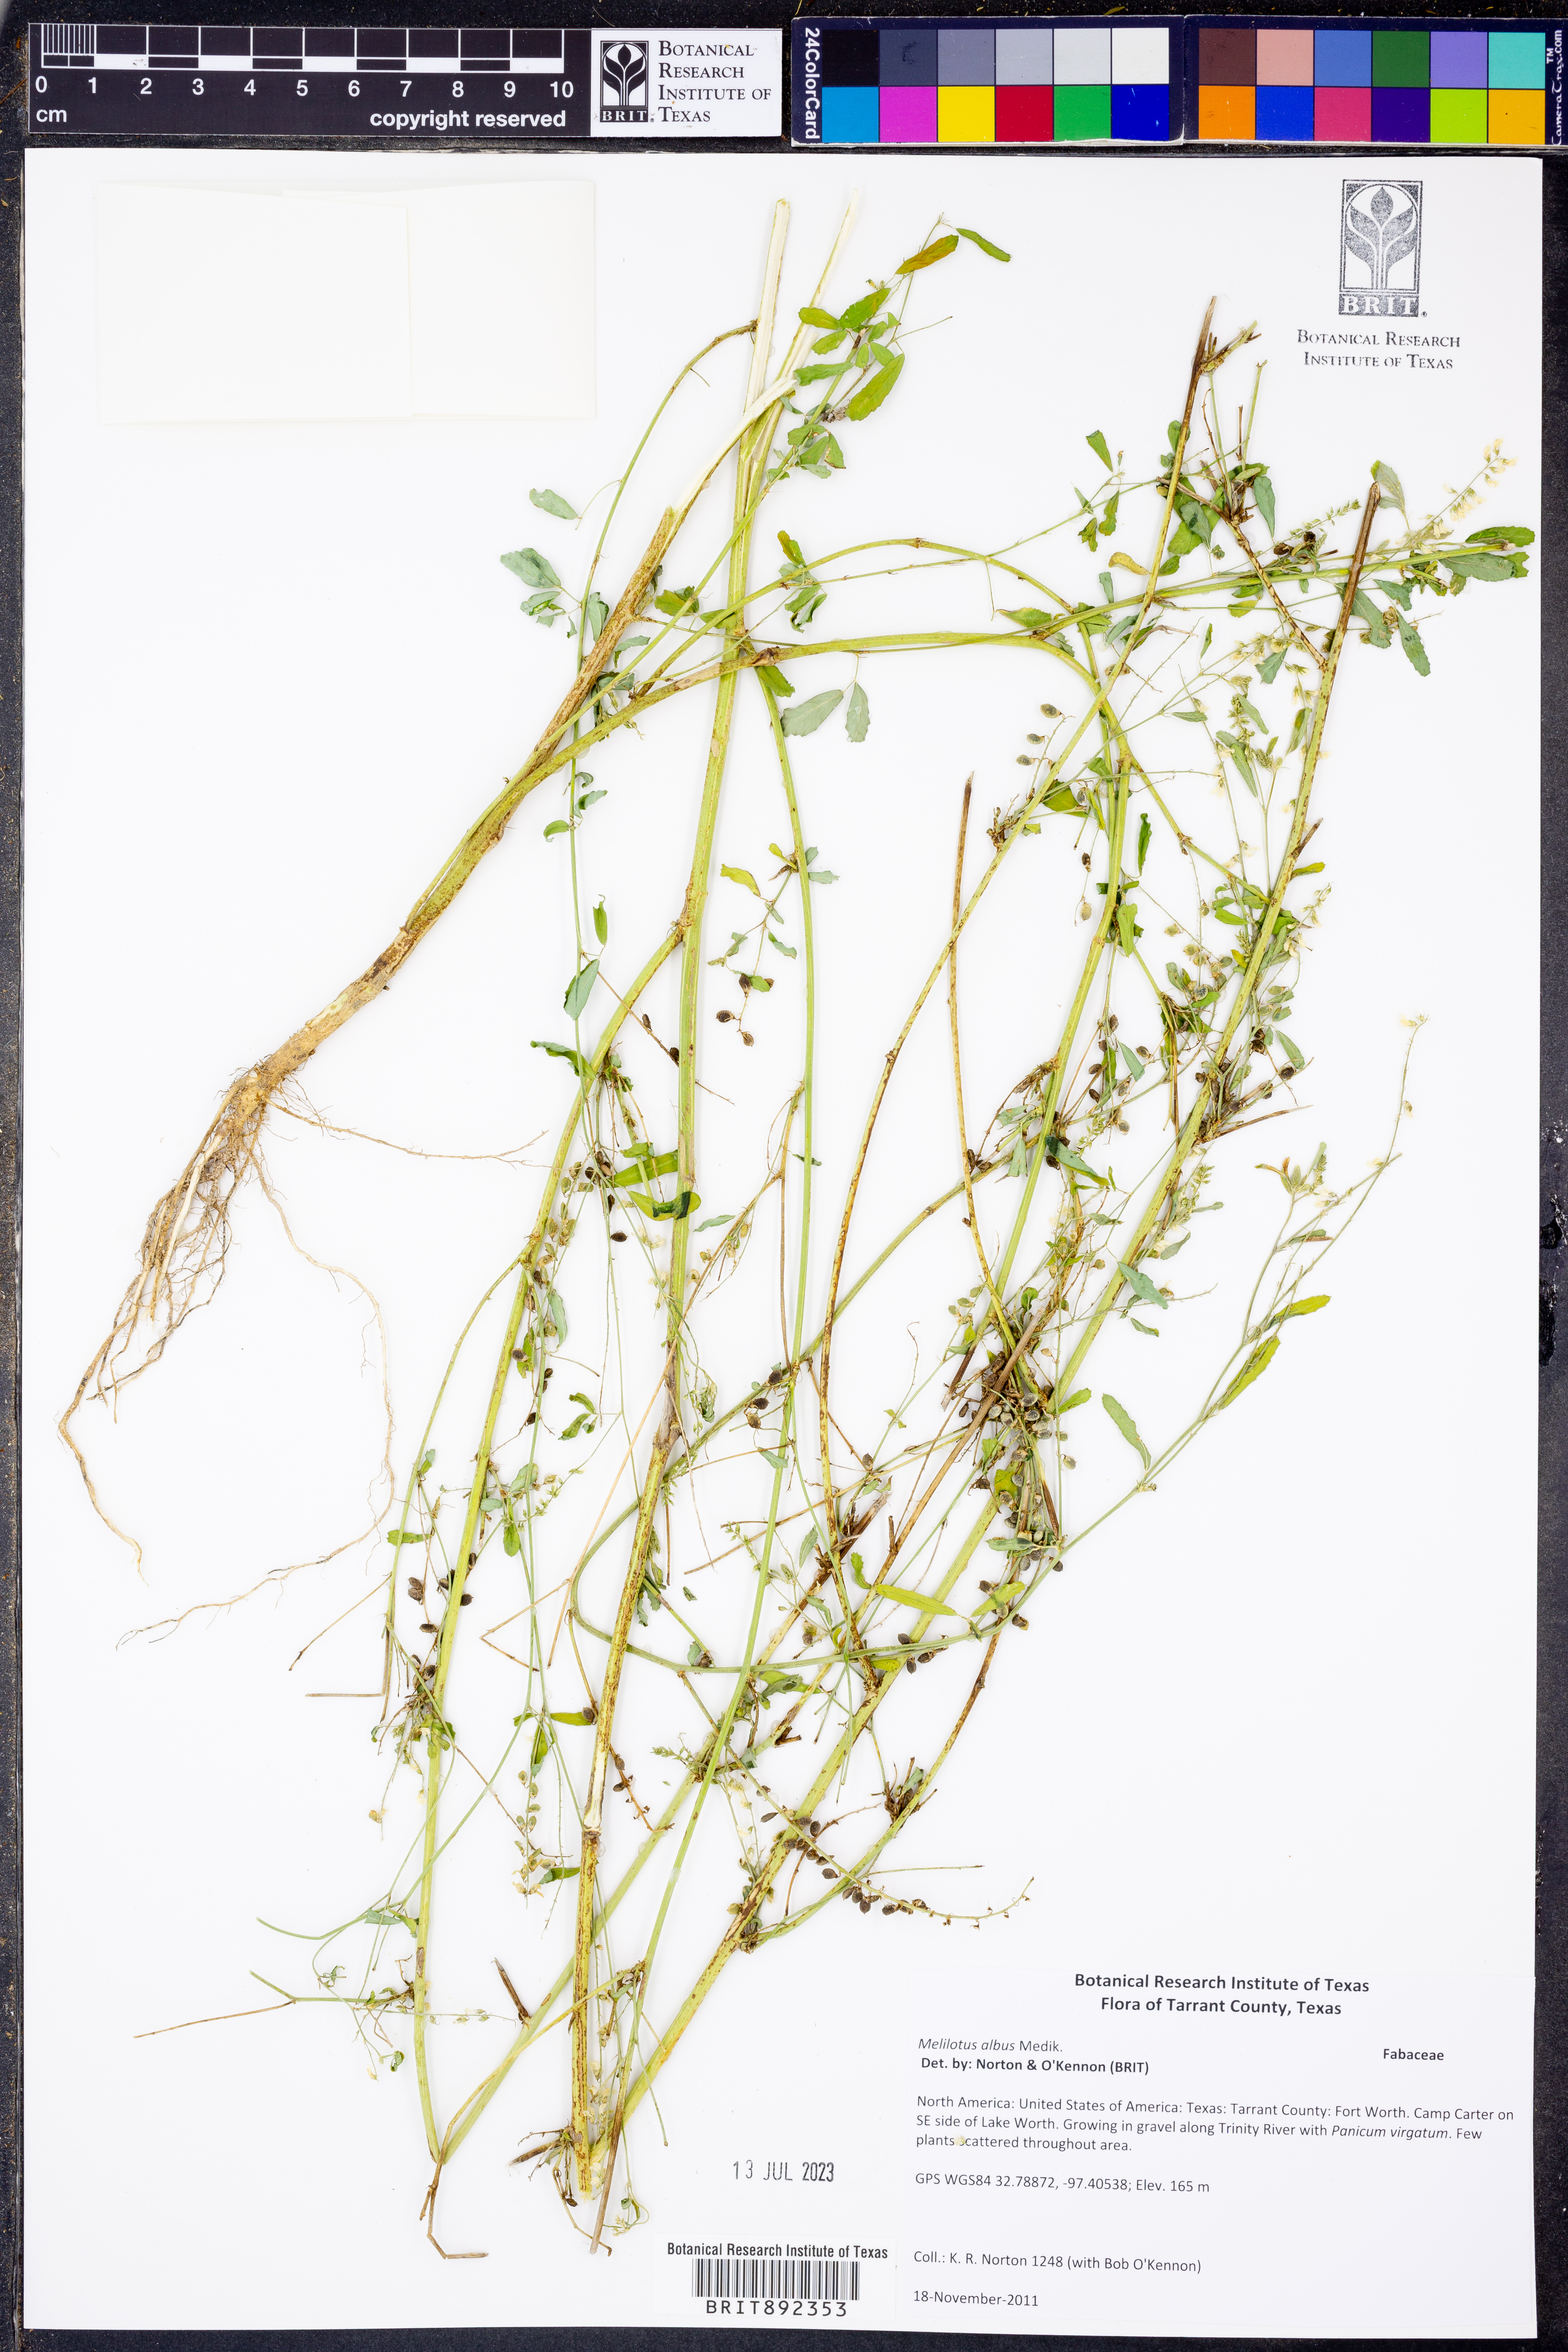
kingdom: Plantae
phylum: Tracheophyta
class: Magnoliopsida
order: Fabales
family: Fabaceae
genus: Melilotus
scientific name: Melilotus albus
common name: White melilot
